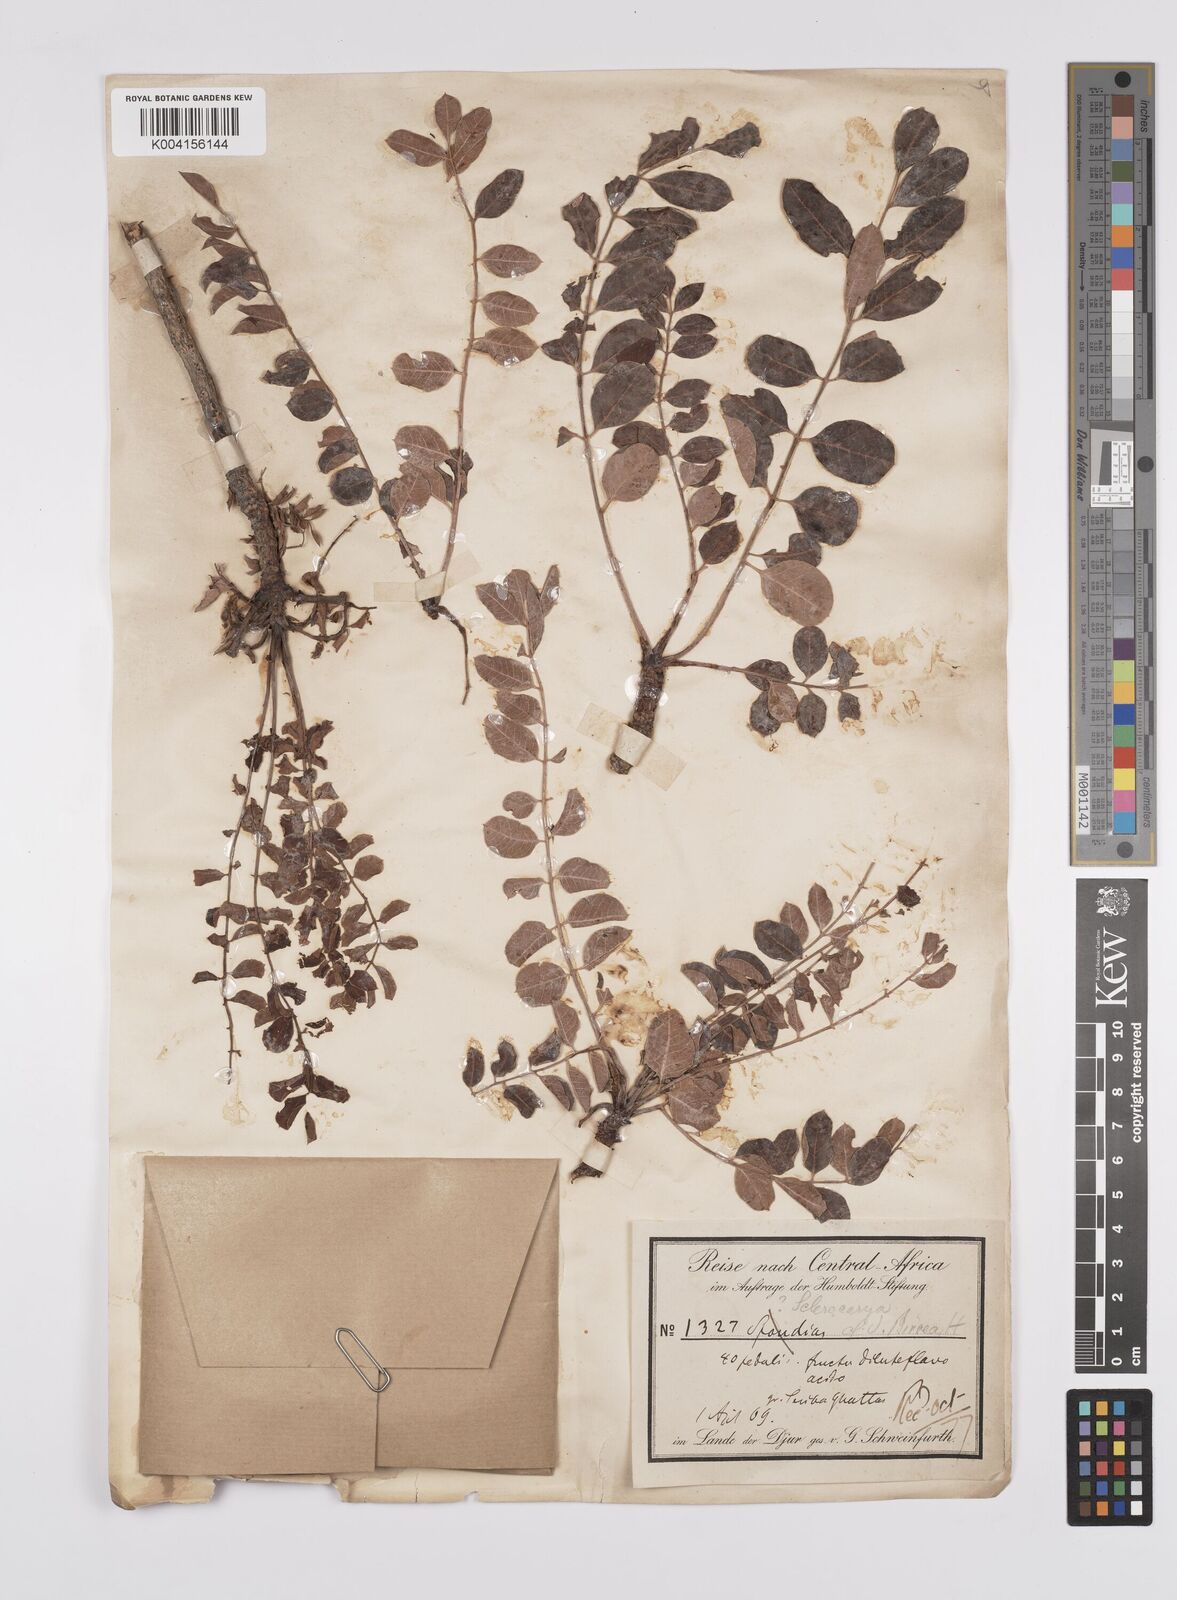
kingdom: Plantae
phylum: Tracheophyta
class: Magnoliopsida
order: Sapindales
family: Anacardiaceae
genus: Sclerocarya
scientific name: Sclerocarya birrea
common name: Marula
